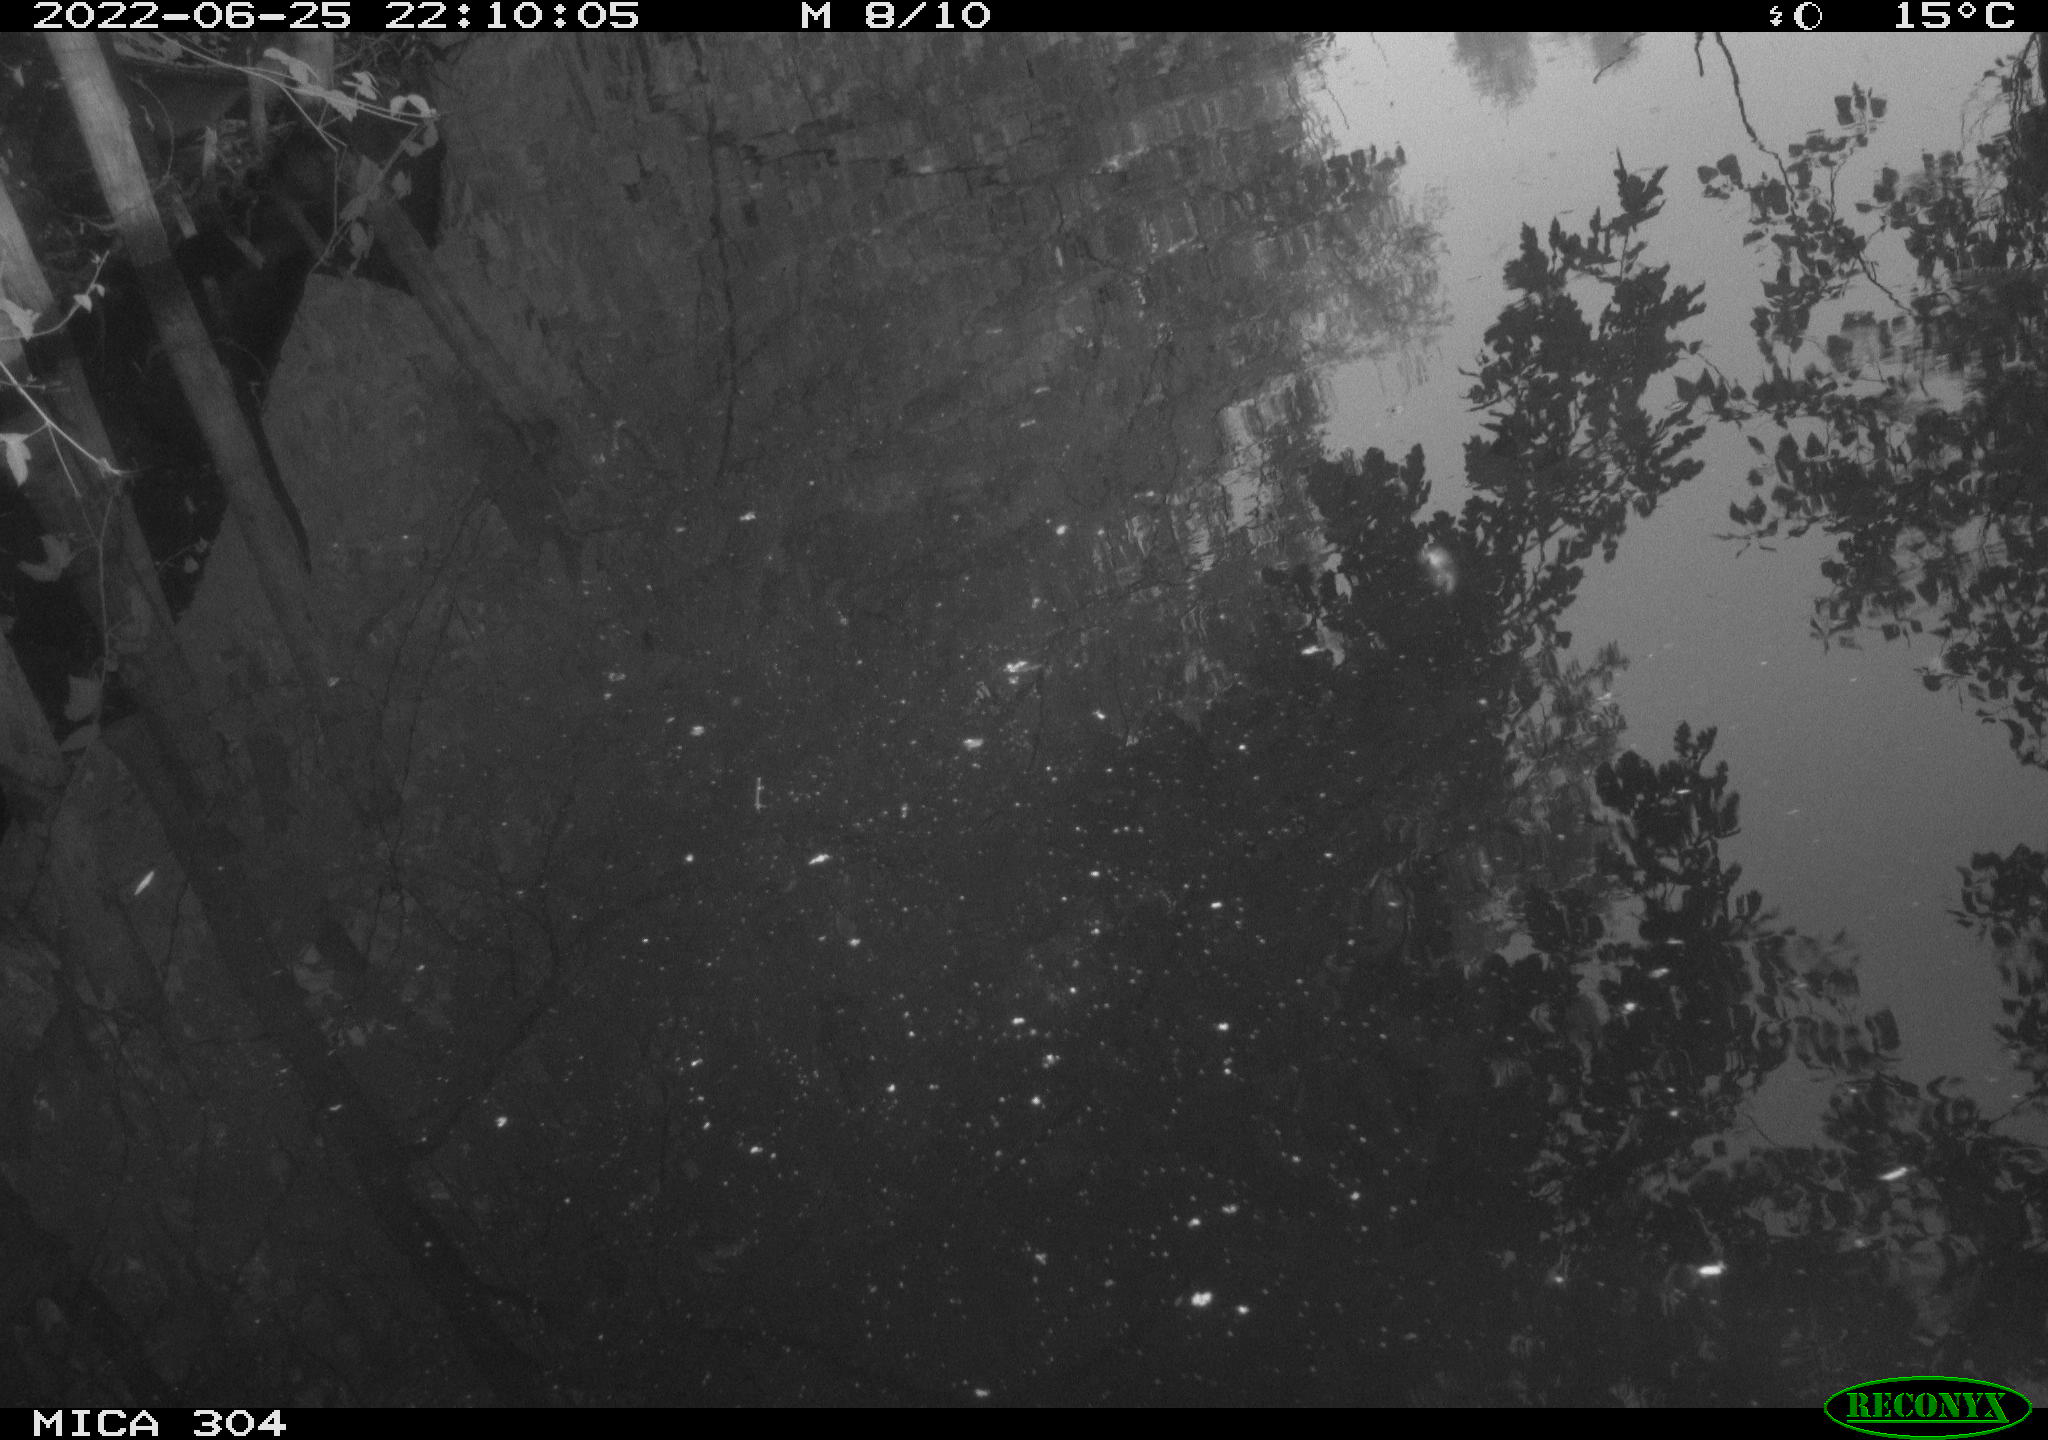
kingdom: Animalia
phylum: Chordata
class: Aves
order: Anseriformes
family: Anatidae
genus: Anas
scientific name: Anas platyrhynchos
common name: Mallard
